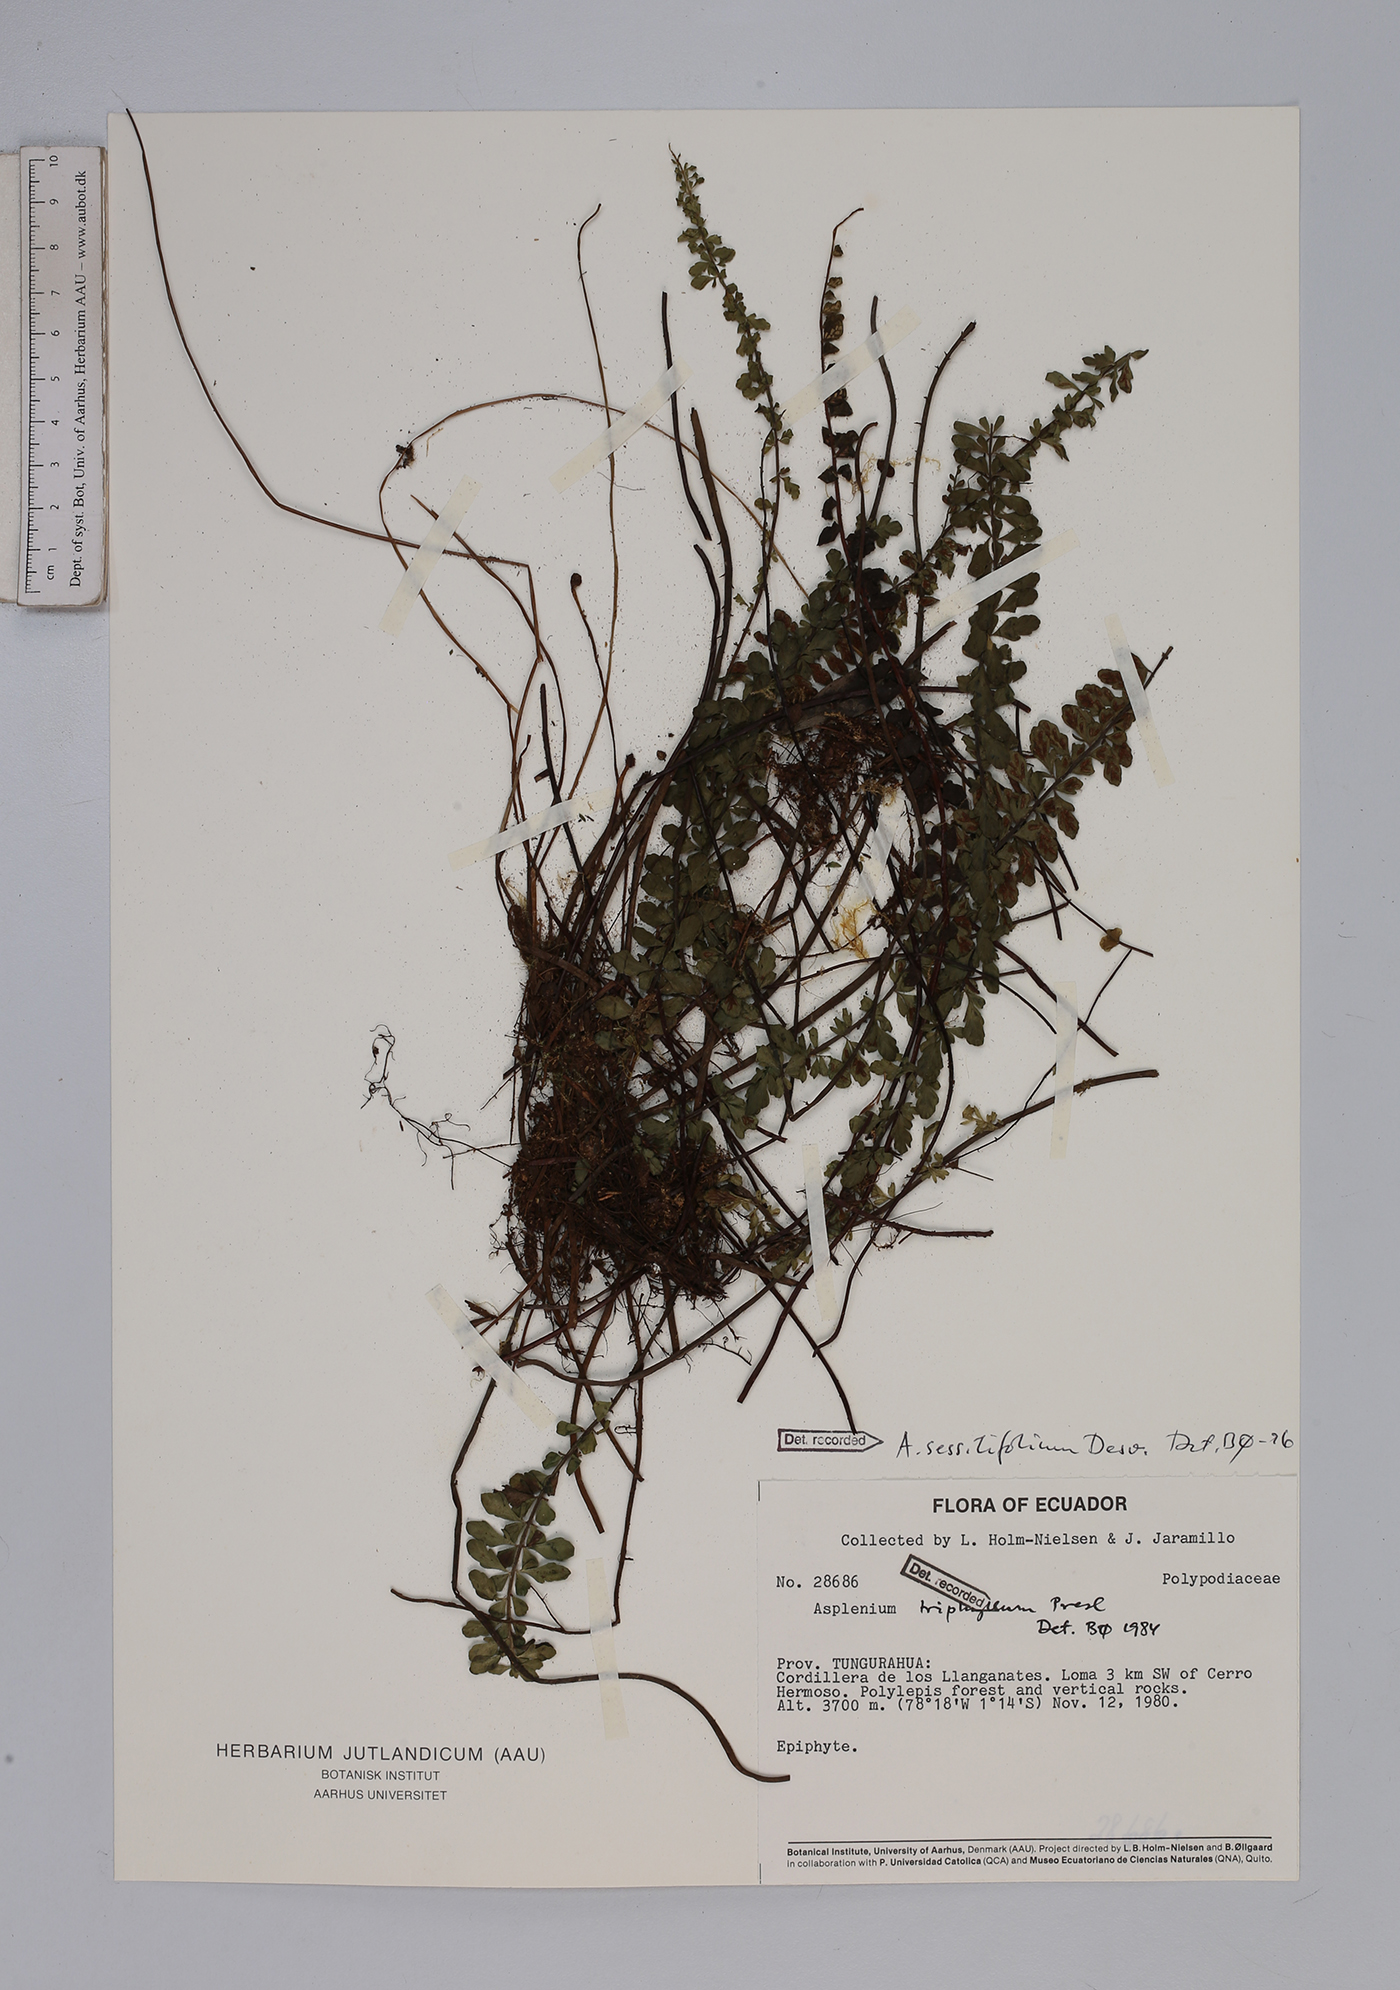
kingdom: Plantae
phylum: Tracheophyta
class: Polypodiopsida
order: Polypodiales
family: Aspleniaceae
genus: Asplenium
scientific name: Asplenium sessilifolium
